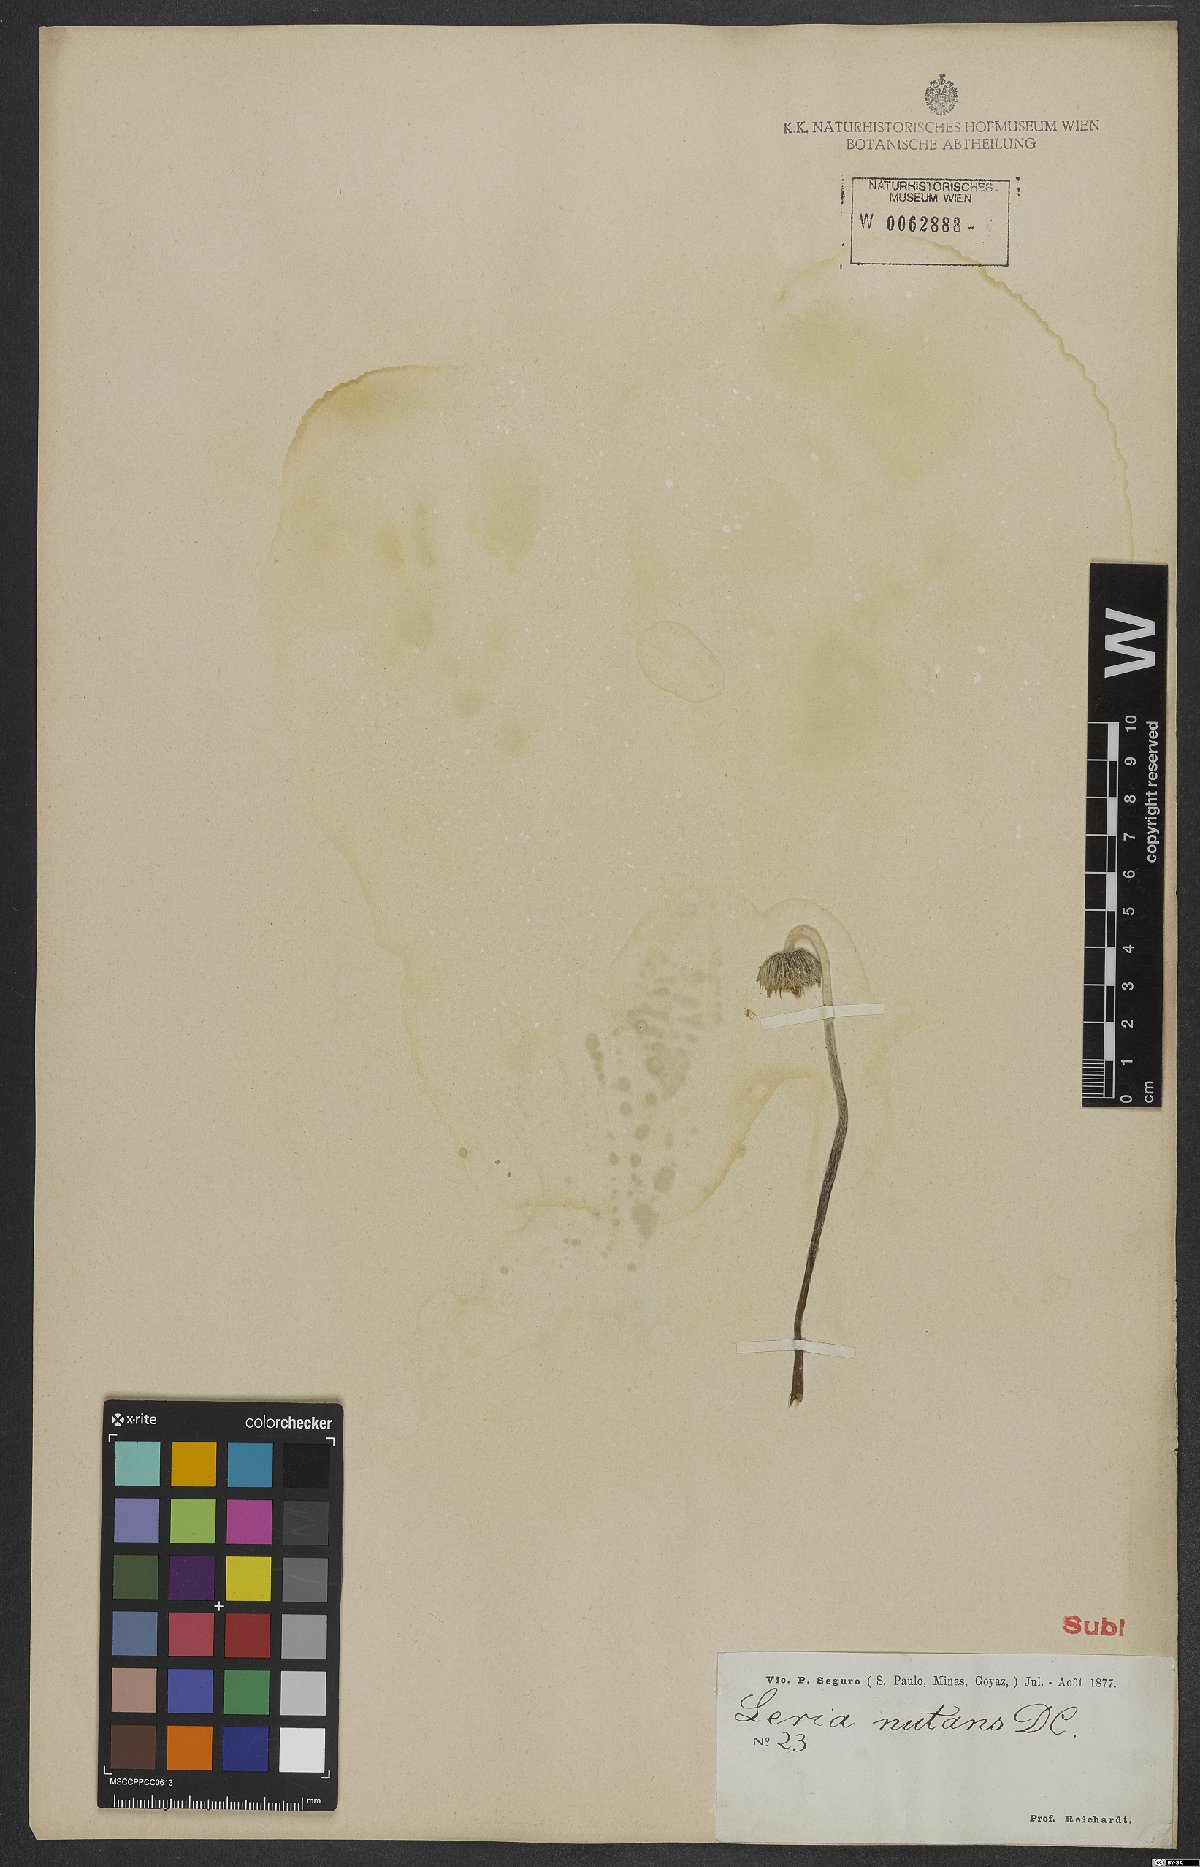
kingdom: Plantae
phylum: Tracheophyta
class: Magnoliopsida
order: Asterales
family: Asteraceae
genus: Chaptalia
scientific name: Chaptalia nutans
